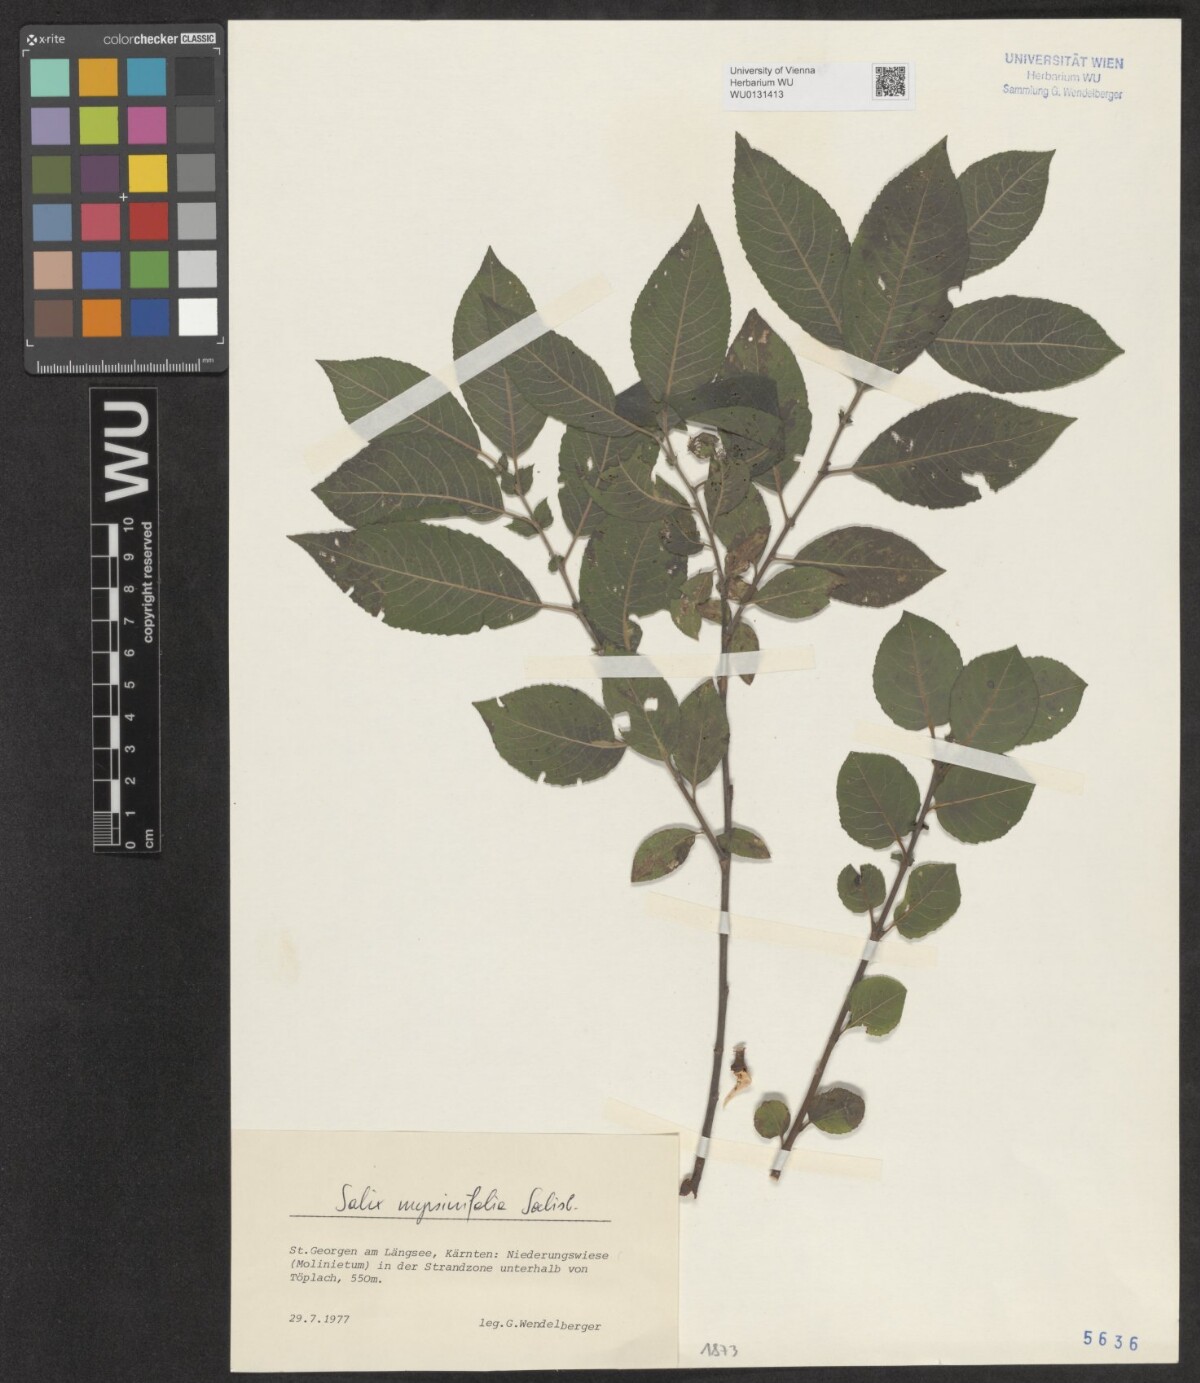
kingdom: Plantae
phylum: Tracheophyta
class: Magnoliopsida
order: Malpighiales
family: Salicaceae
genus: Salix
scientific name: Salix myrsinifolia
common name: Dark-leaved willow
